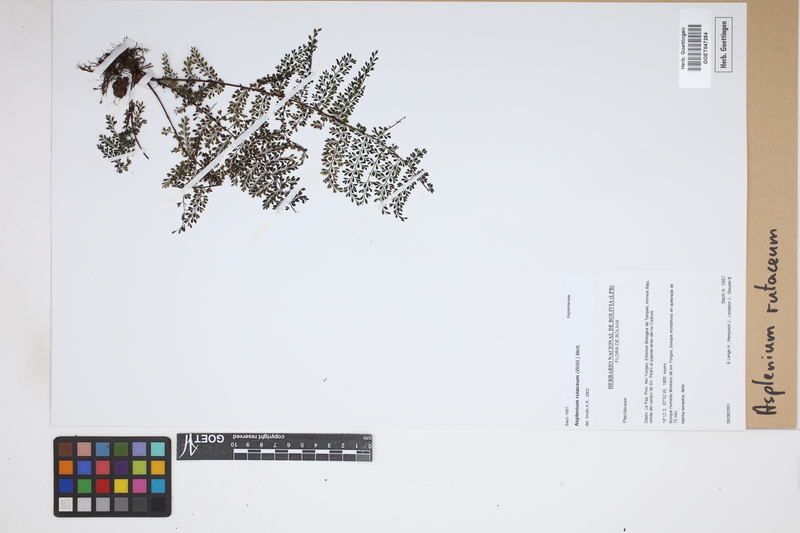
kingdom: Plantae
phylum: Tracheophyta
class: Polypodiopsida
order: Polypodiales
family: Aspleniaceae
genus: Asplenium
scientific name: Asplenium rutaceum
